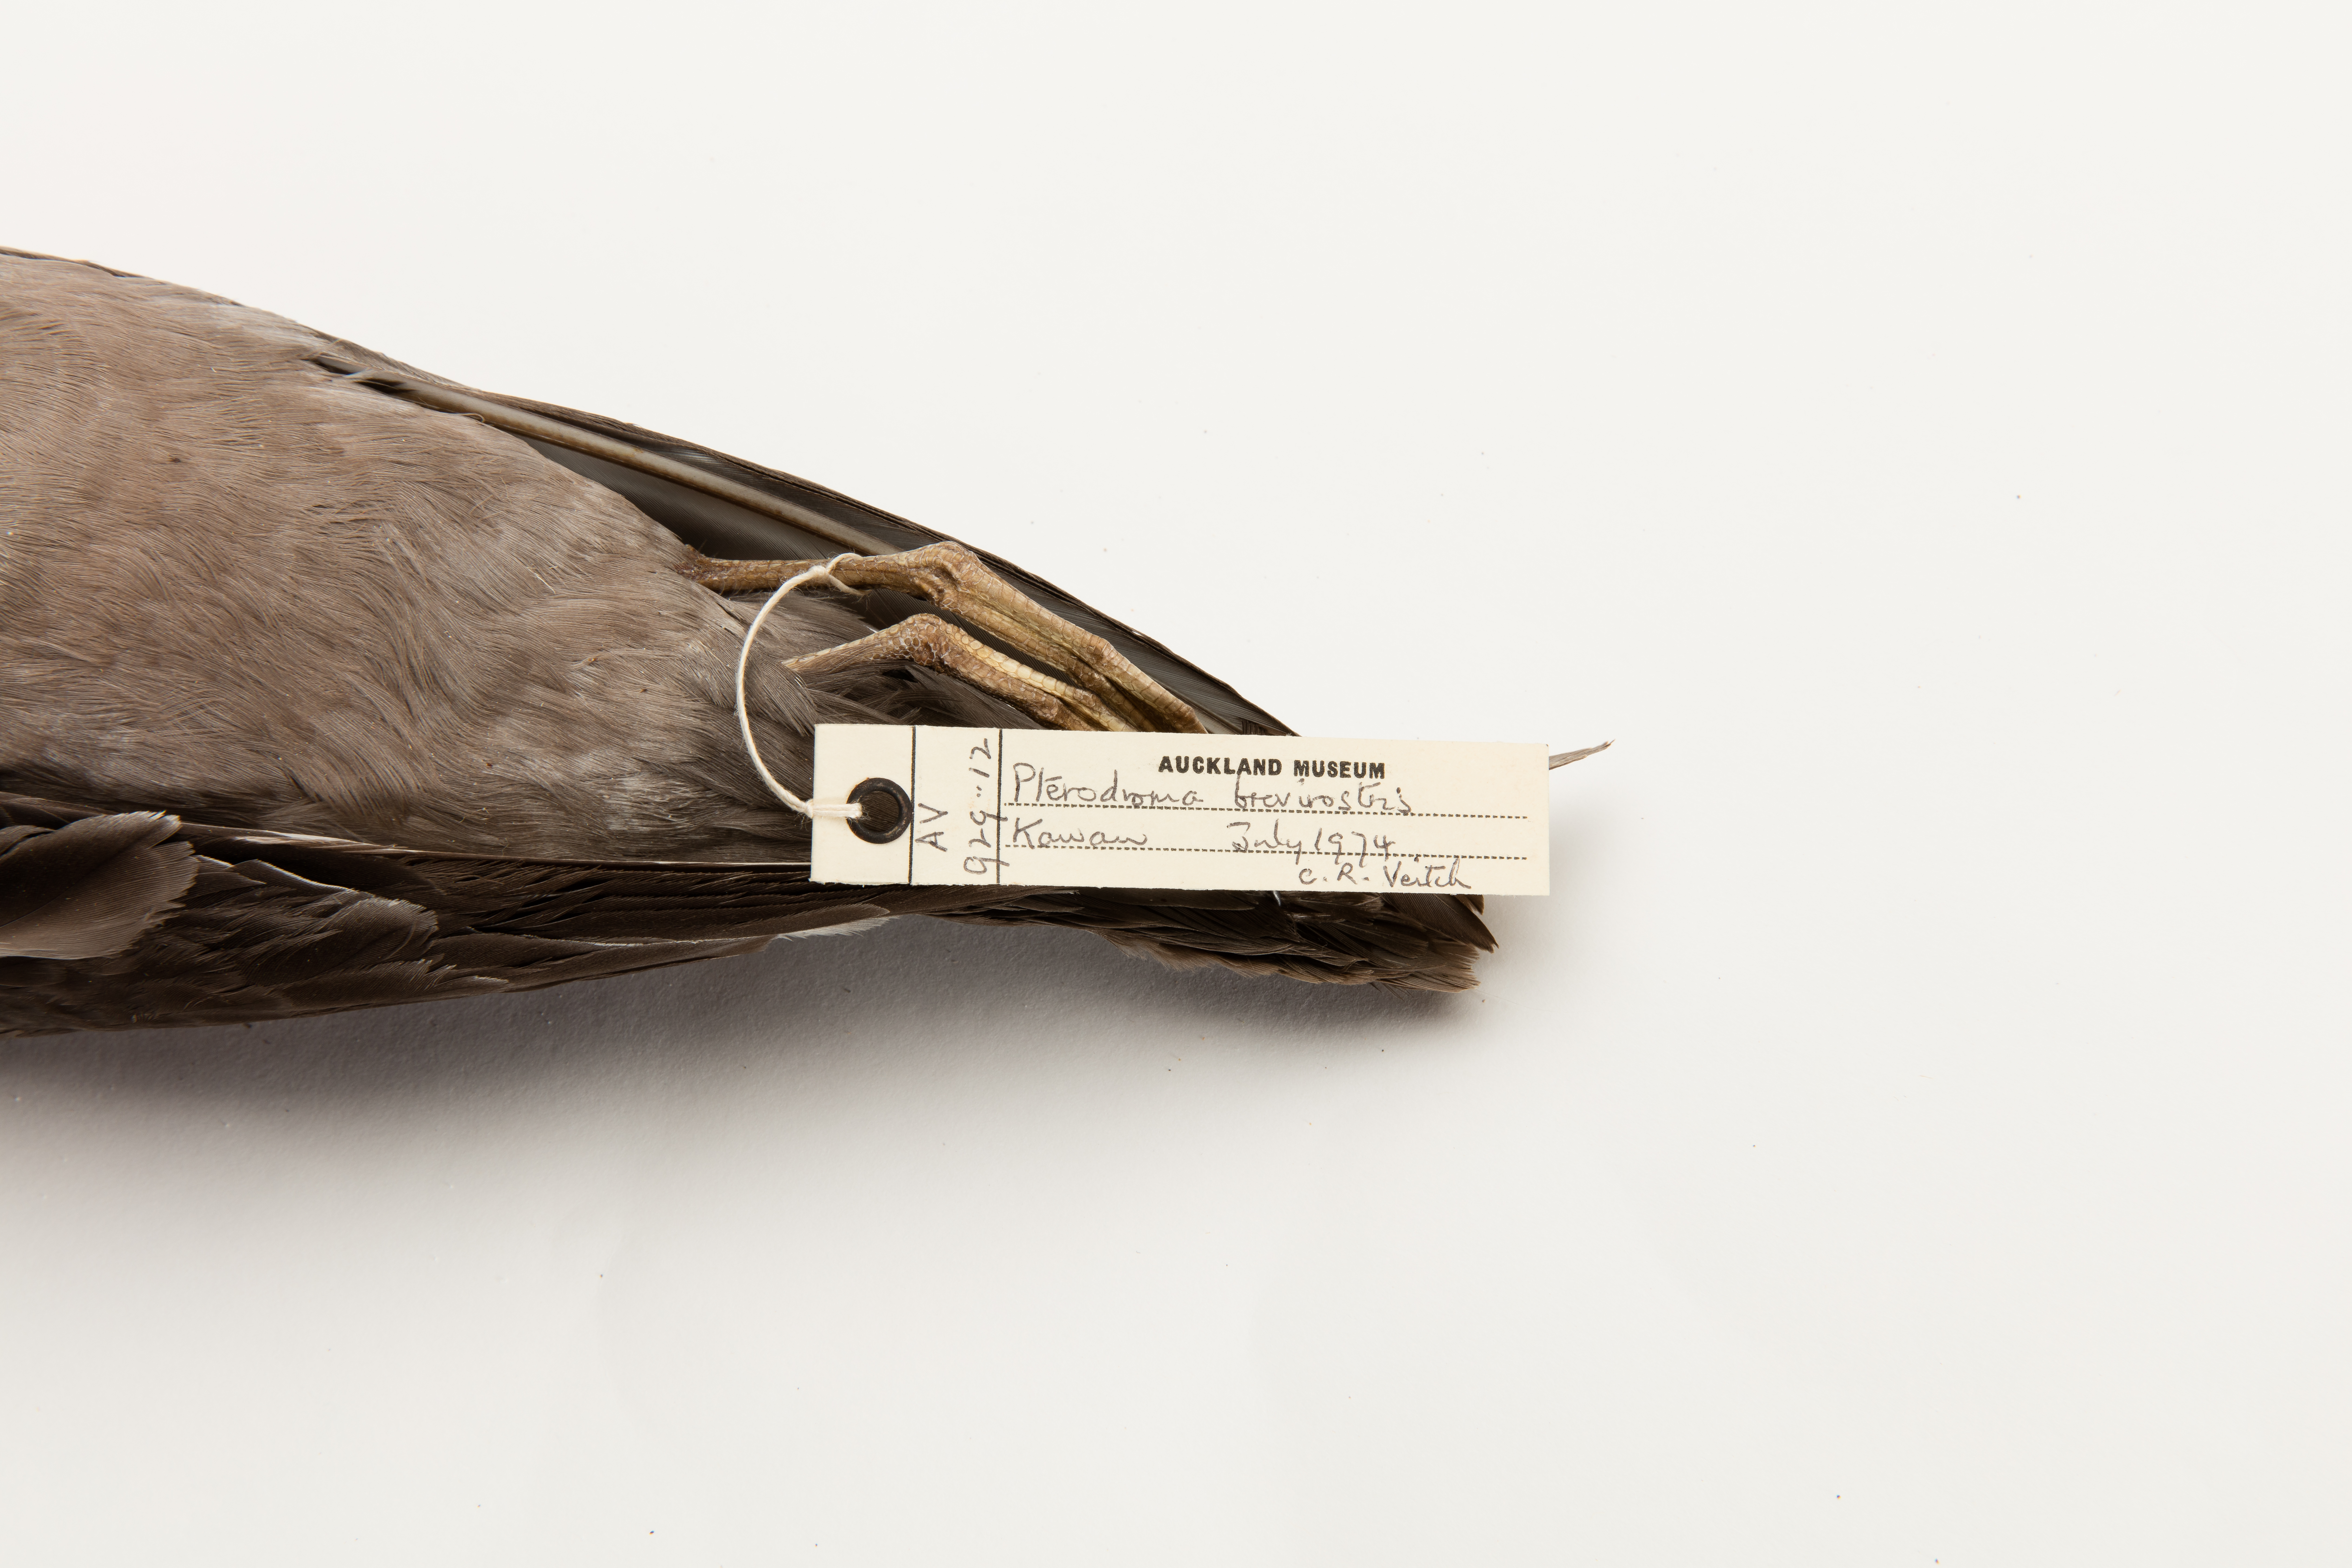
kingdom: Animalia
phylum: Chordata
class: Aves
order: Procellariiformes
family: Procellariidae
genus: Aphrodroma
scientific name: Aphrodroma brevirostris
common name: Kerguelen petrel
